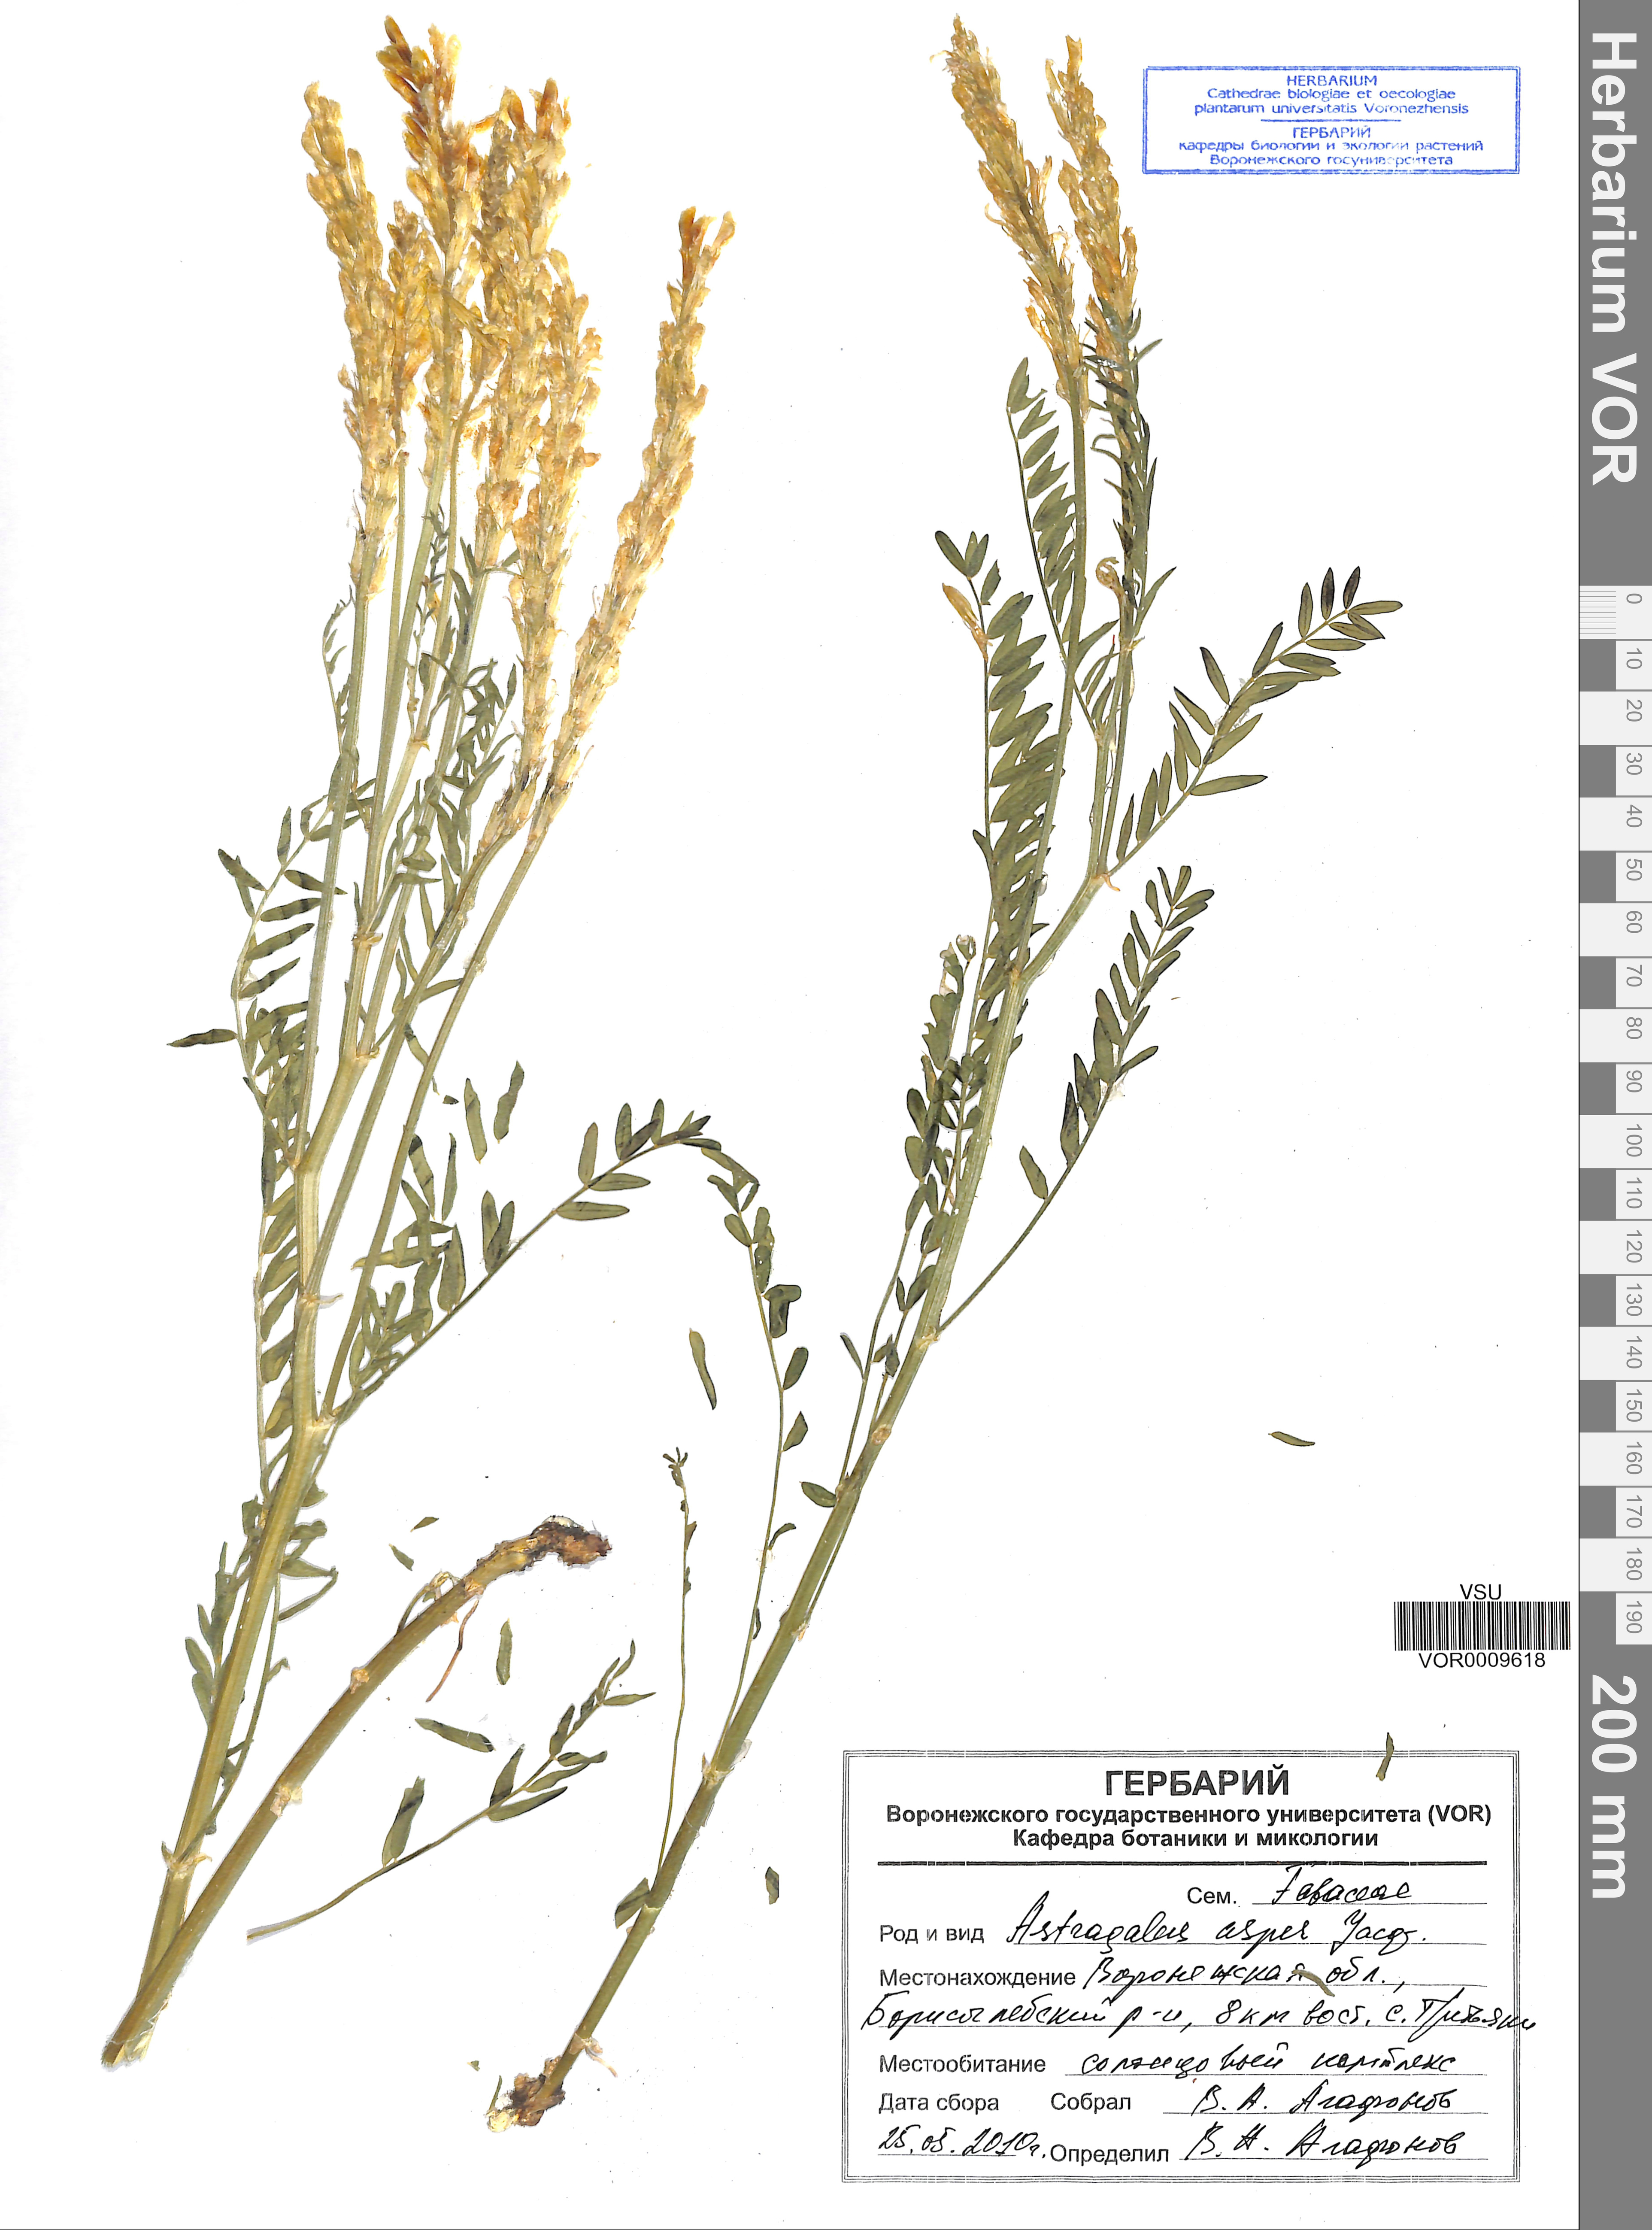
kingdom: Plantae
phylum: Tracheophyta
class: Magnoliopsida
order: Fabales
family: Fabaceae
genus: Astragalus
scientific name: Astragalus asper
